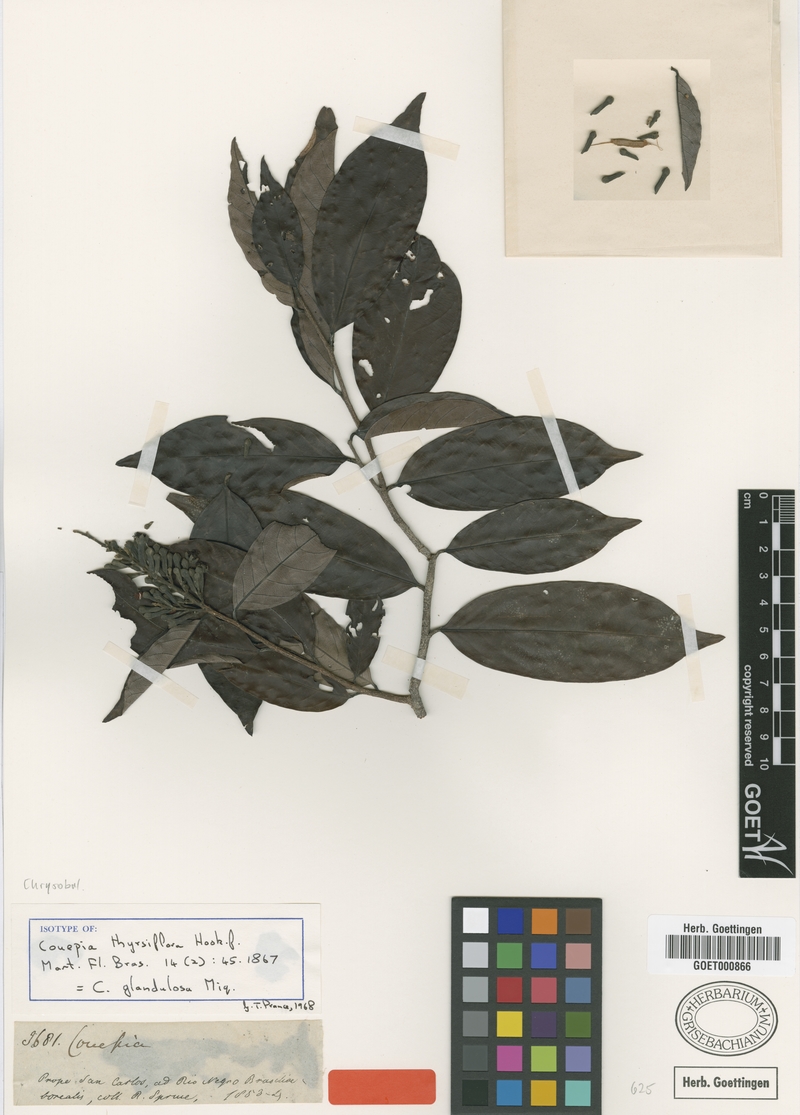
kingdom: Plantae
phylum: Tracheophyta
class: Magnoliopsida
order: Malpighiales
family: Chrysobalanaceae
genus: Couepia
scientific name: Couepia guianensis
